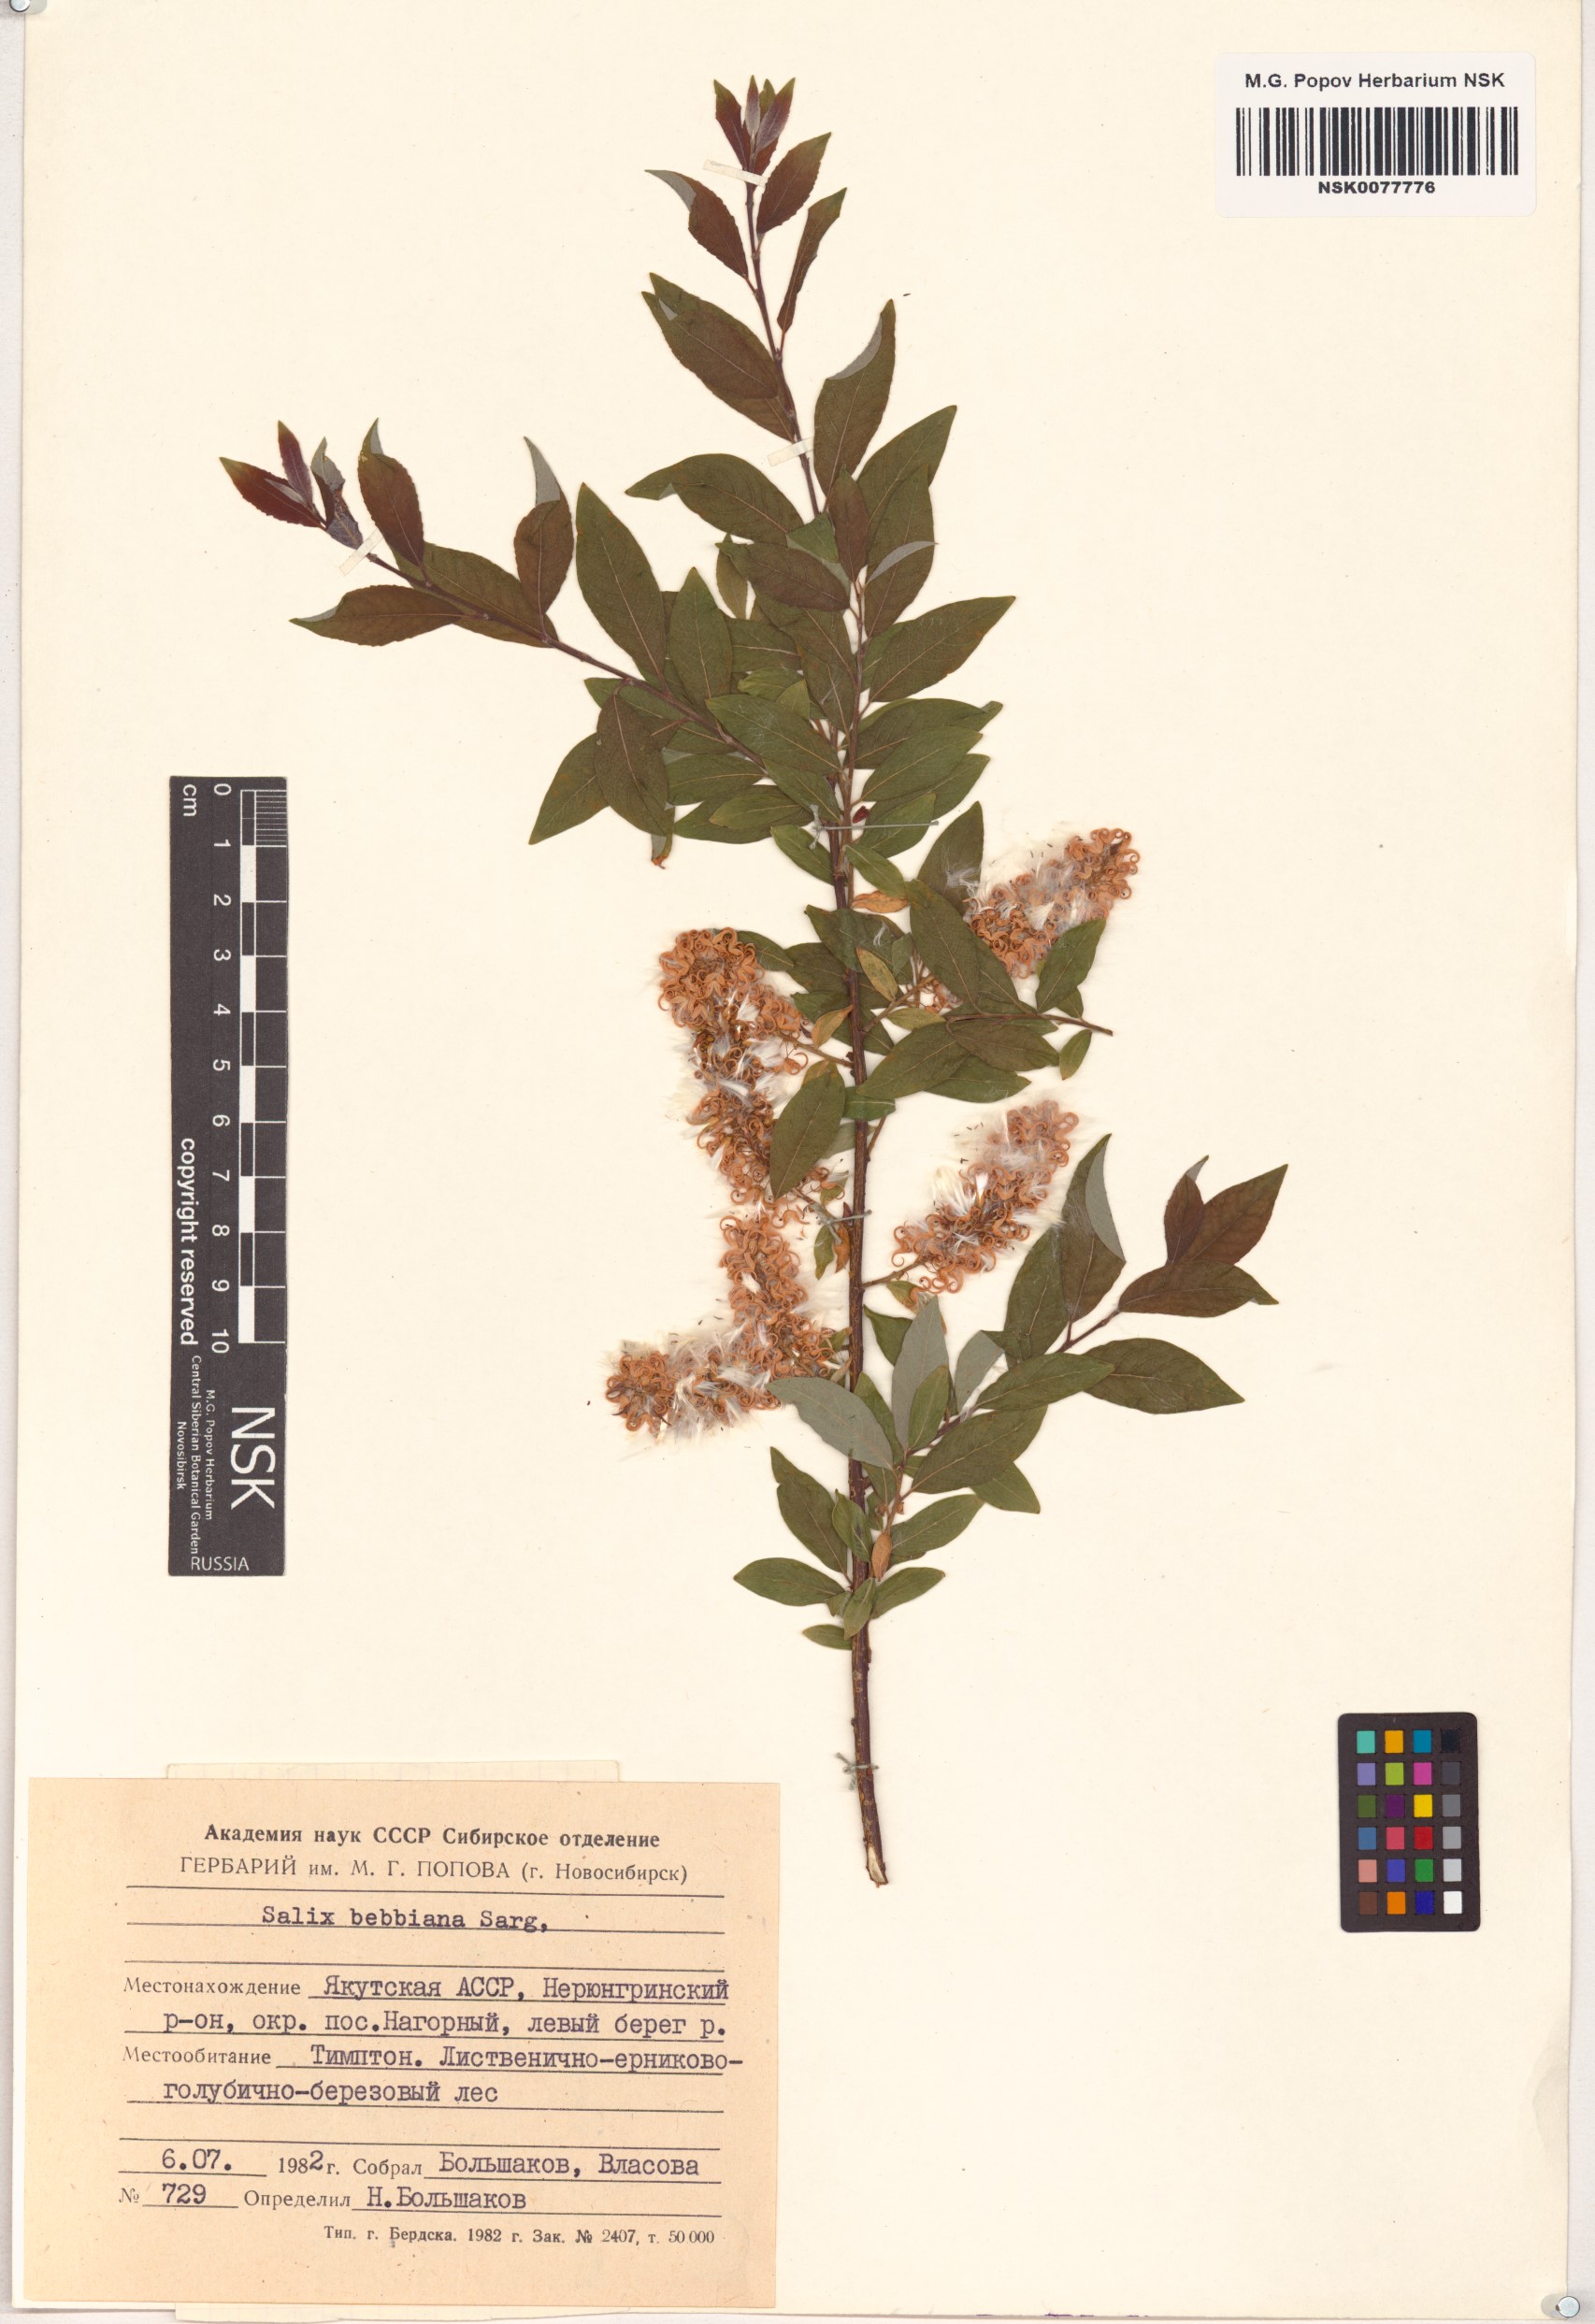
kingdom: Plantae
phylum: Tracheophyta
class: Magnoliopsida
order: Malpighiales
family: Salicaceae
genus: Salix
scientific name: Salix bebbiana
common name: Bebb's willow
